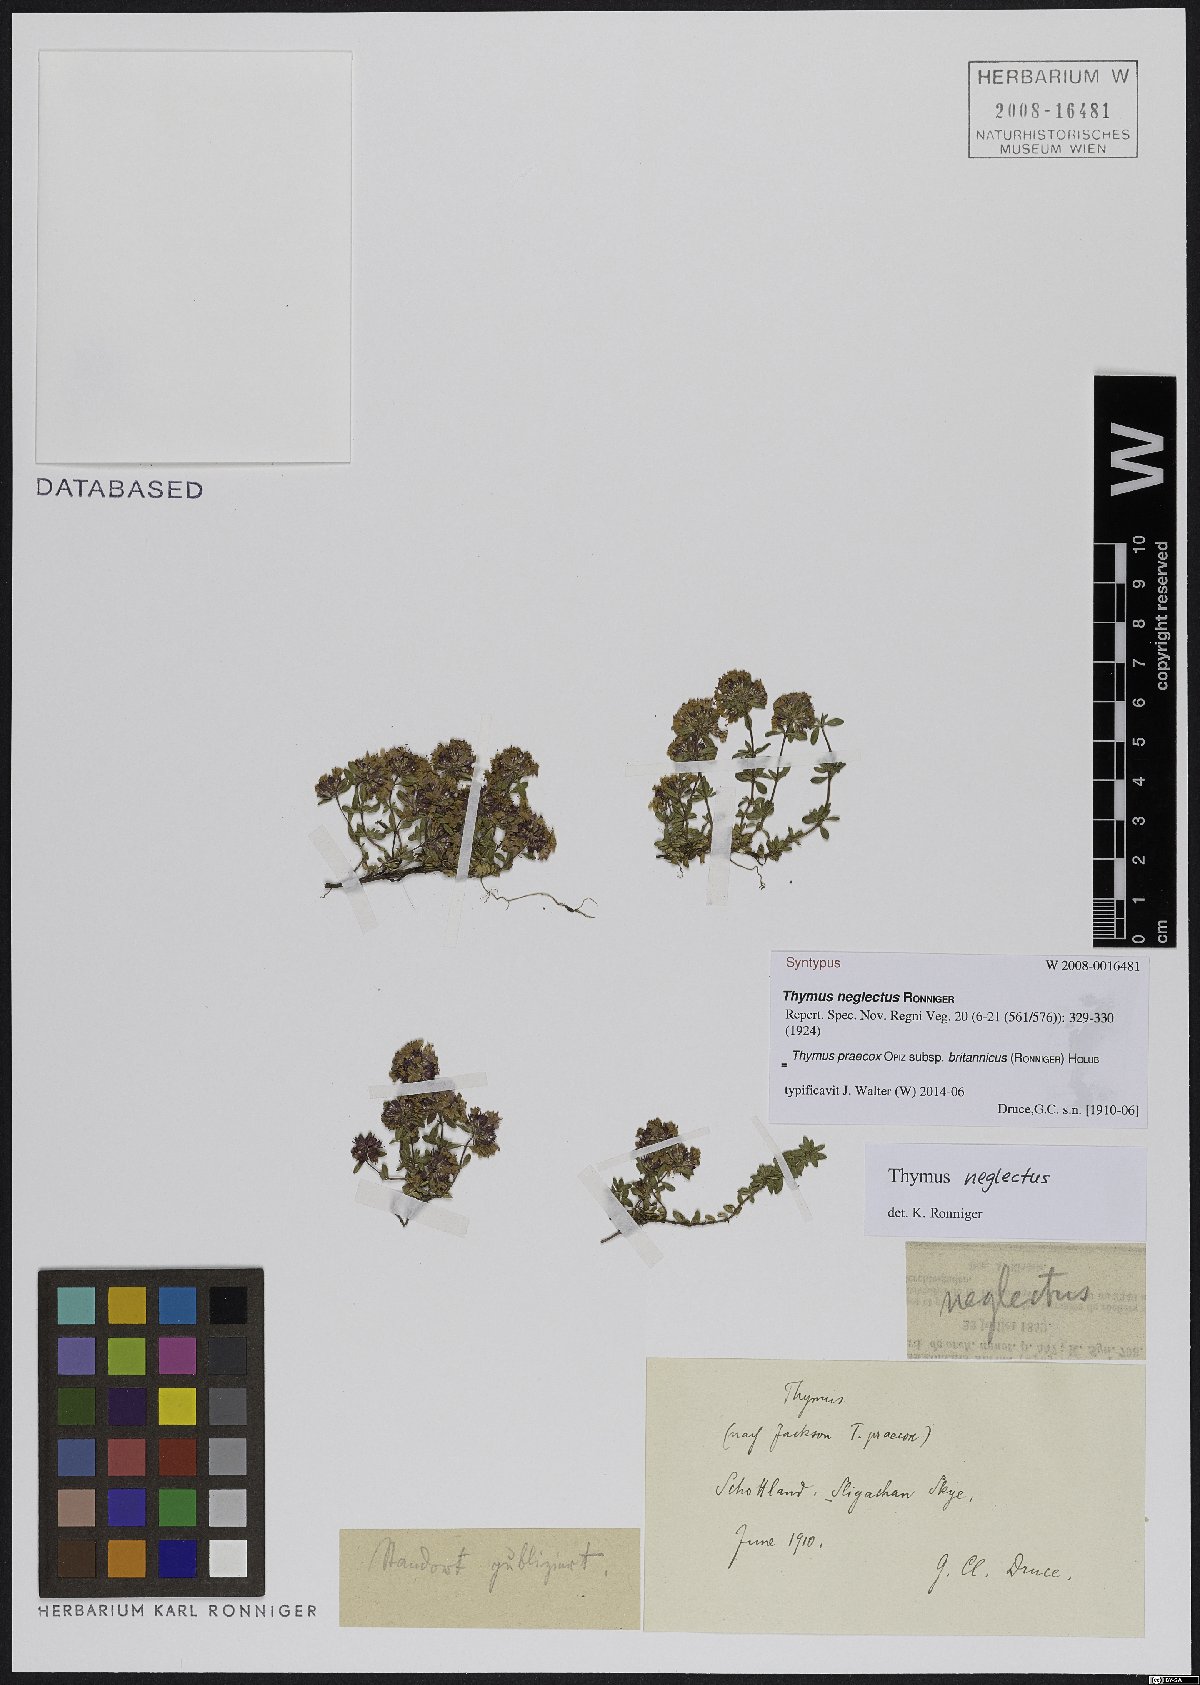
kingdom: Plantae
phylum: Tracheophyta
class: Magnoliopsida
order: Lamiales
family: Lamiaceae
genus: Thymus
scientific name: Thymus praecox
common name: Wild thyme
